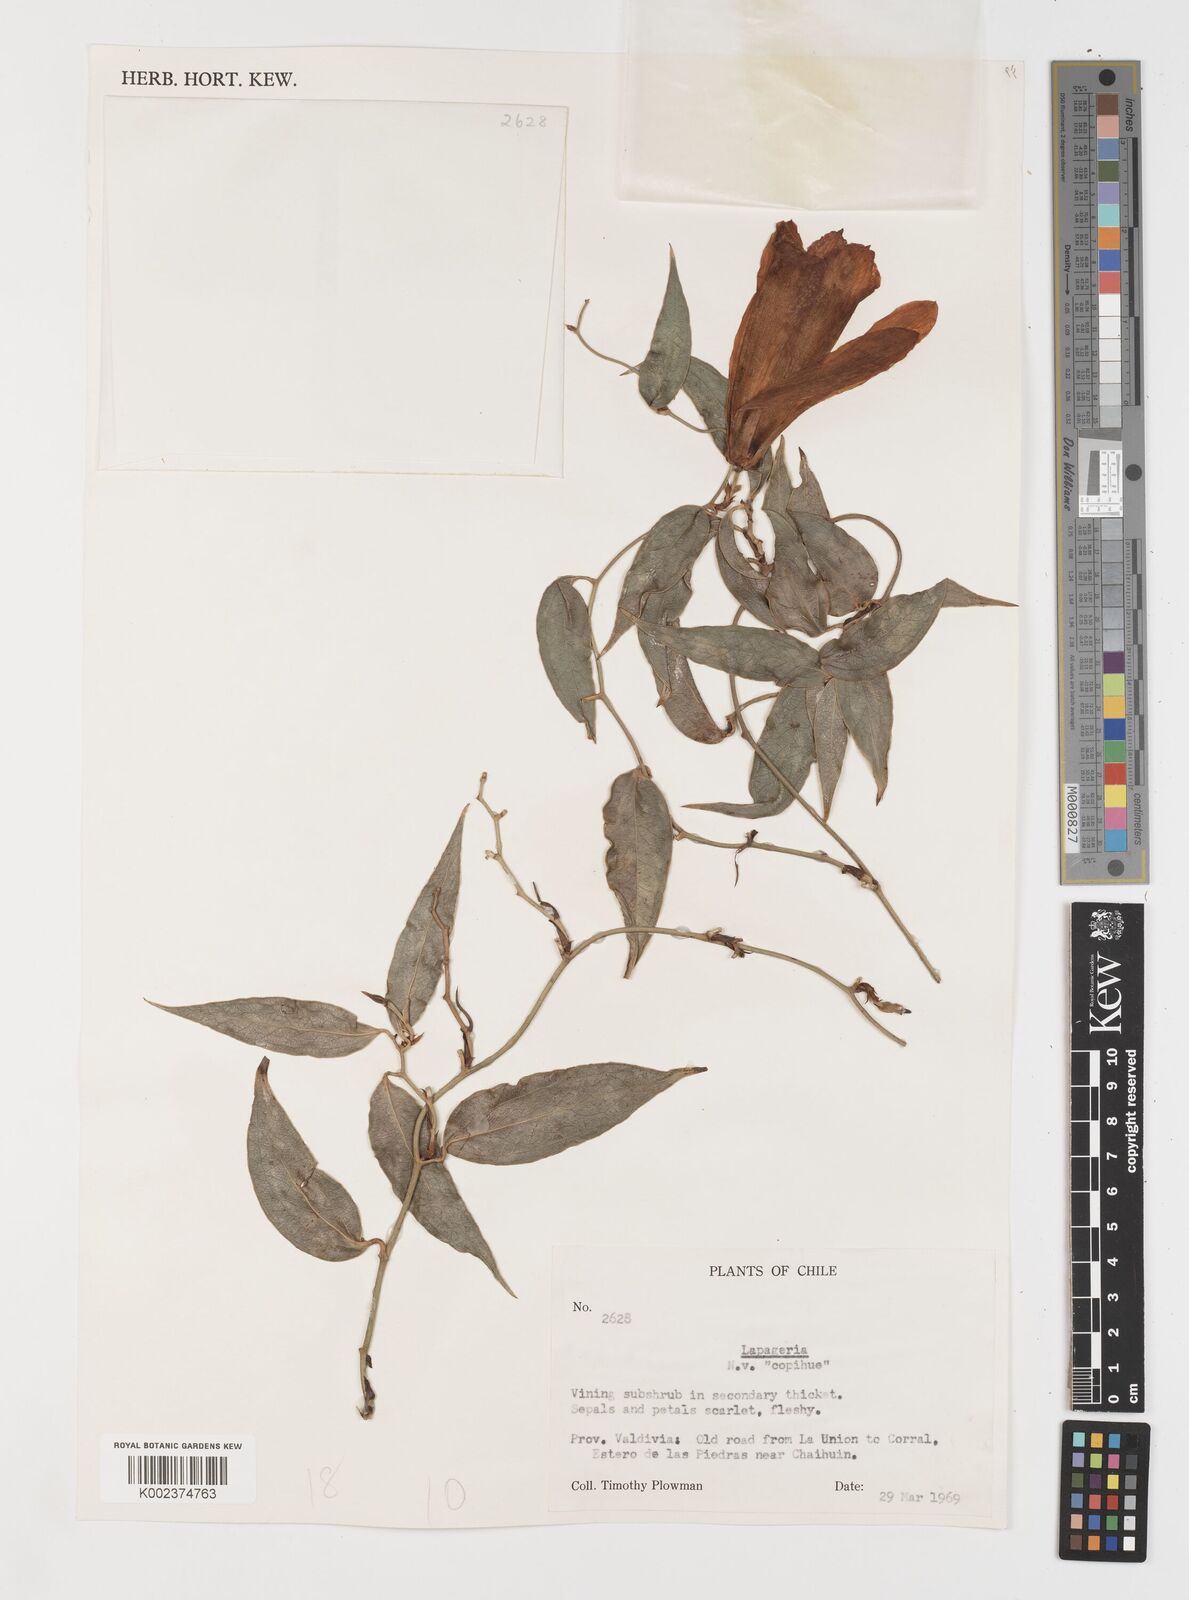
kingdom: Plantae
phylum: Tracheophyta
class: Liliopsida
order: Liliales
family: Philesiaceae
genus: Lapageria
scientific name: Lapageria rosea
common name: Chilean-bellflower
